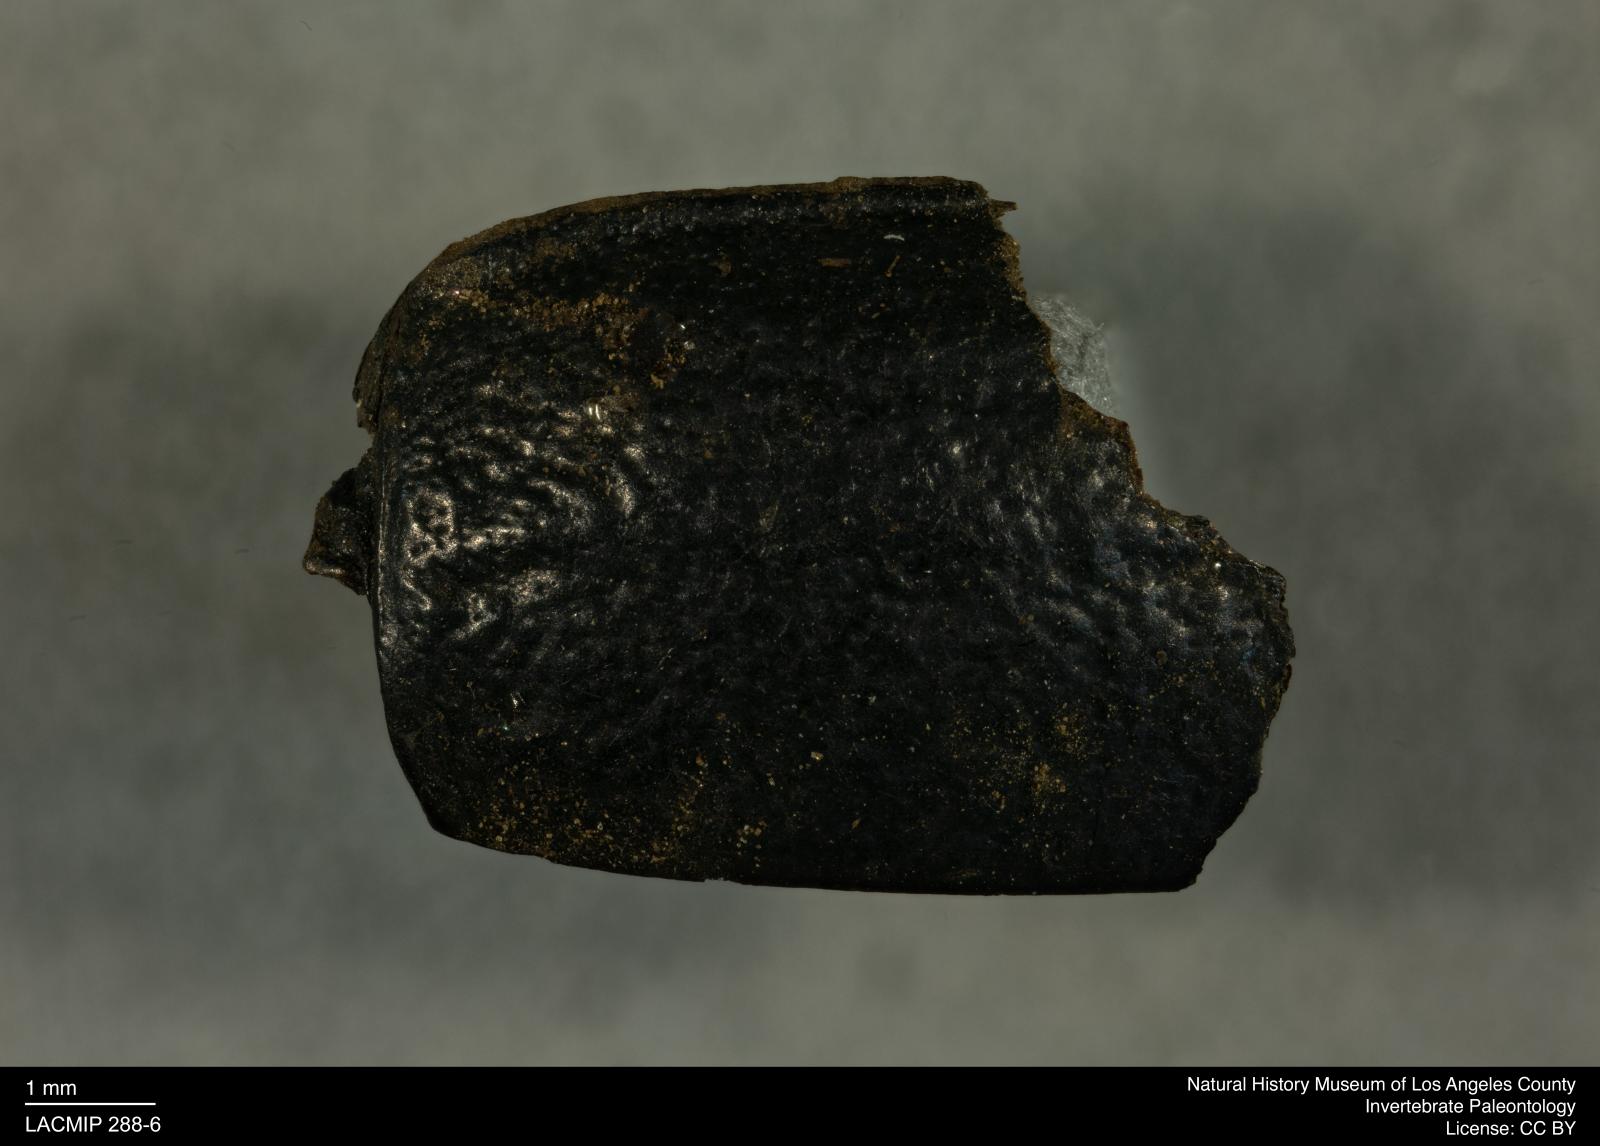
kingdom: Animalia
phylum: Arthropoda
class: Insecta
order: Coleoptera
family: Tenebrionidae
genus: Coniontis
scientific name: Coniontis abdominalis
